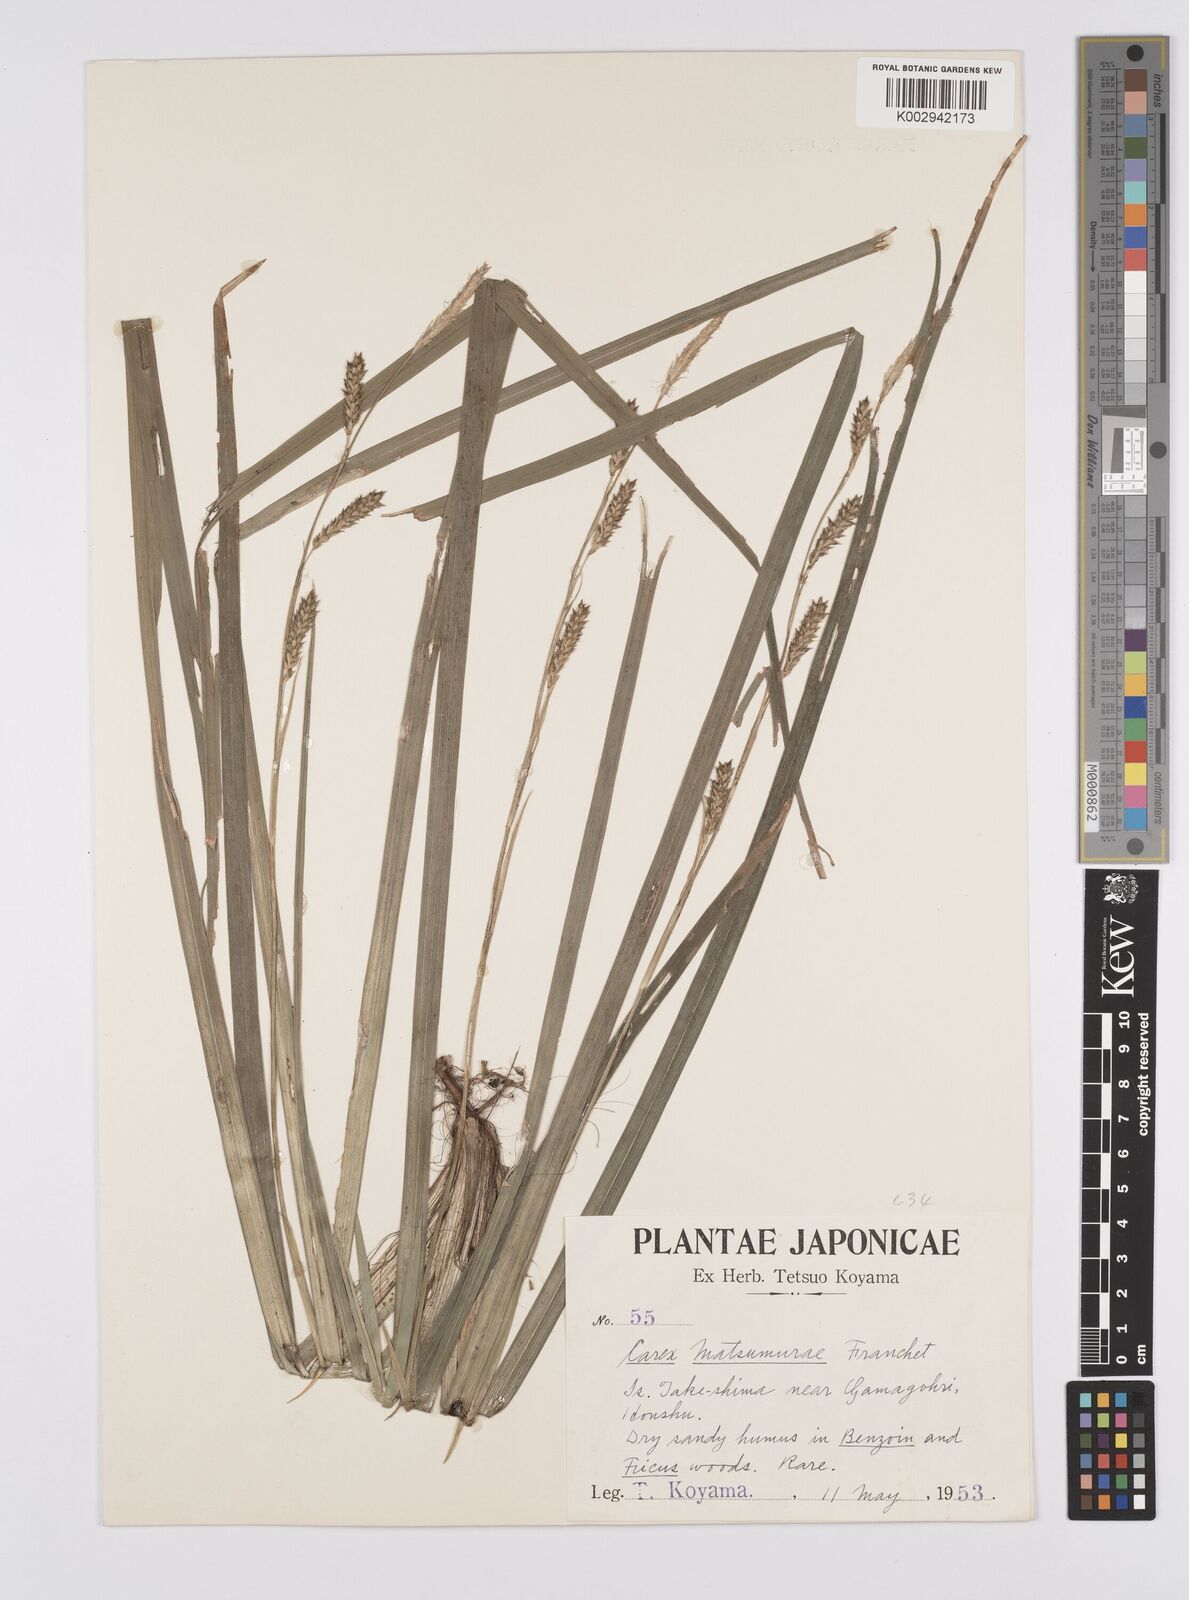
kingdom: Plantae
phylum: Tracheophyta
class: Liliopsida
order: Poales
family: Cyperaceae
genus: Carex
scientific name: Carex matsumurae
